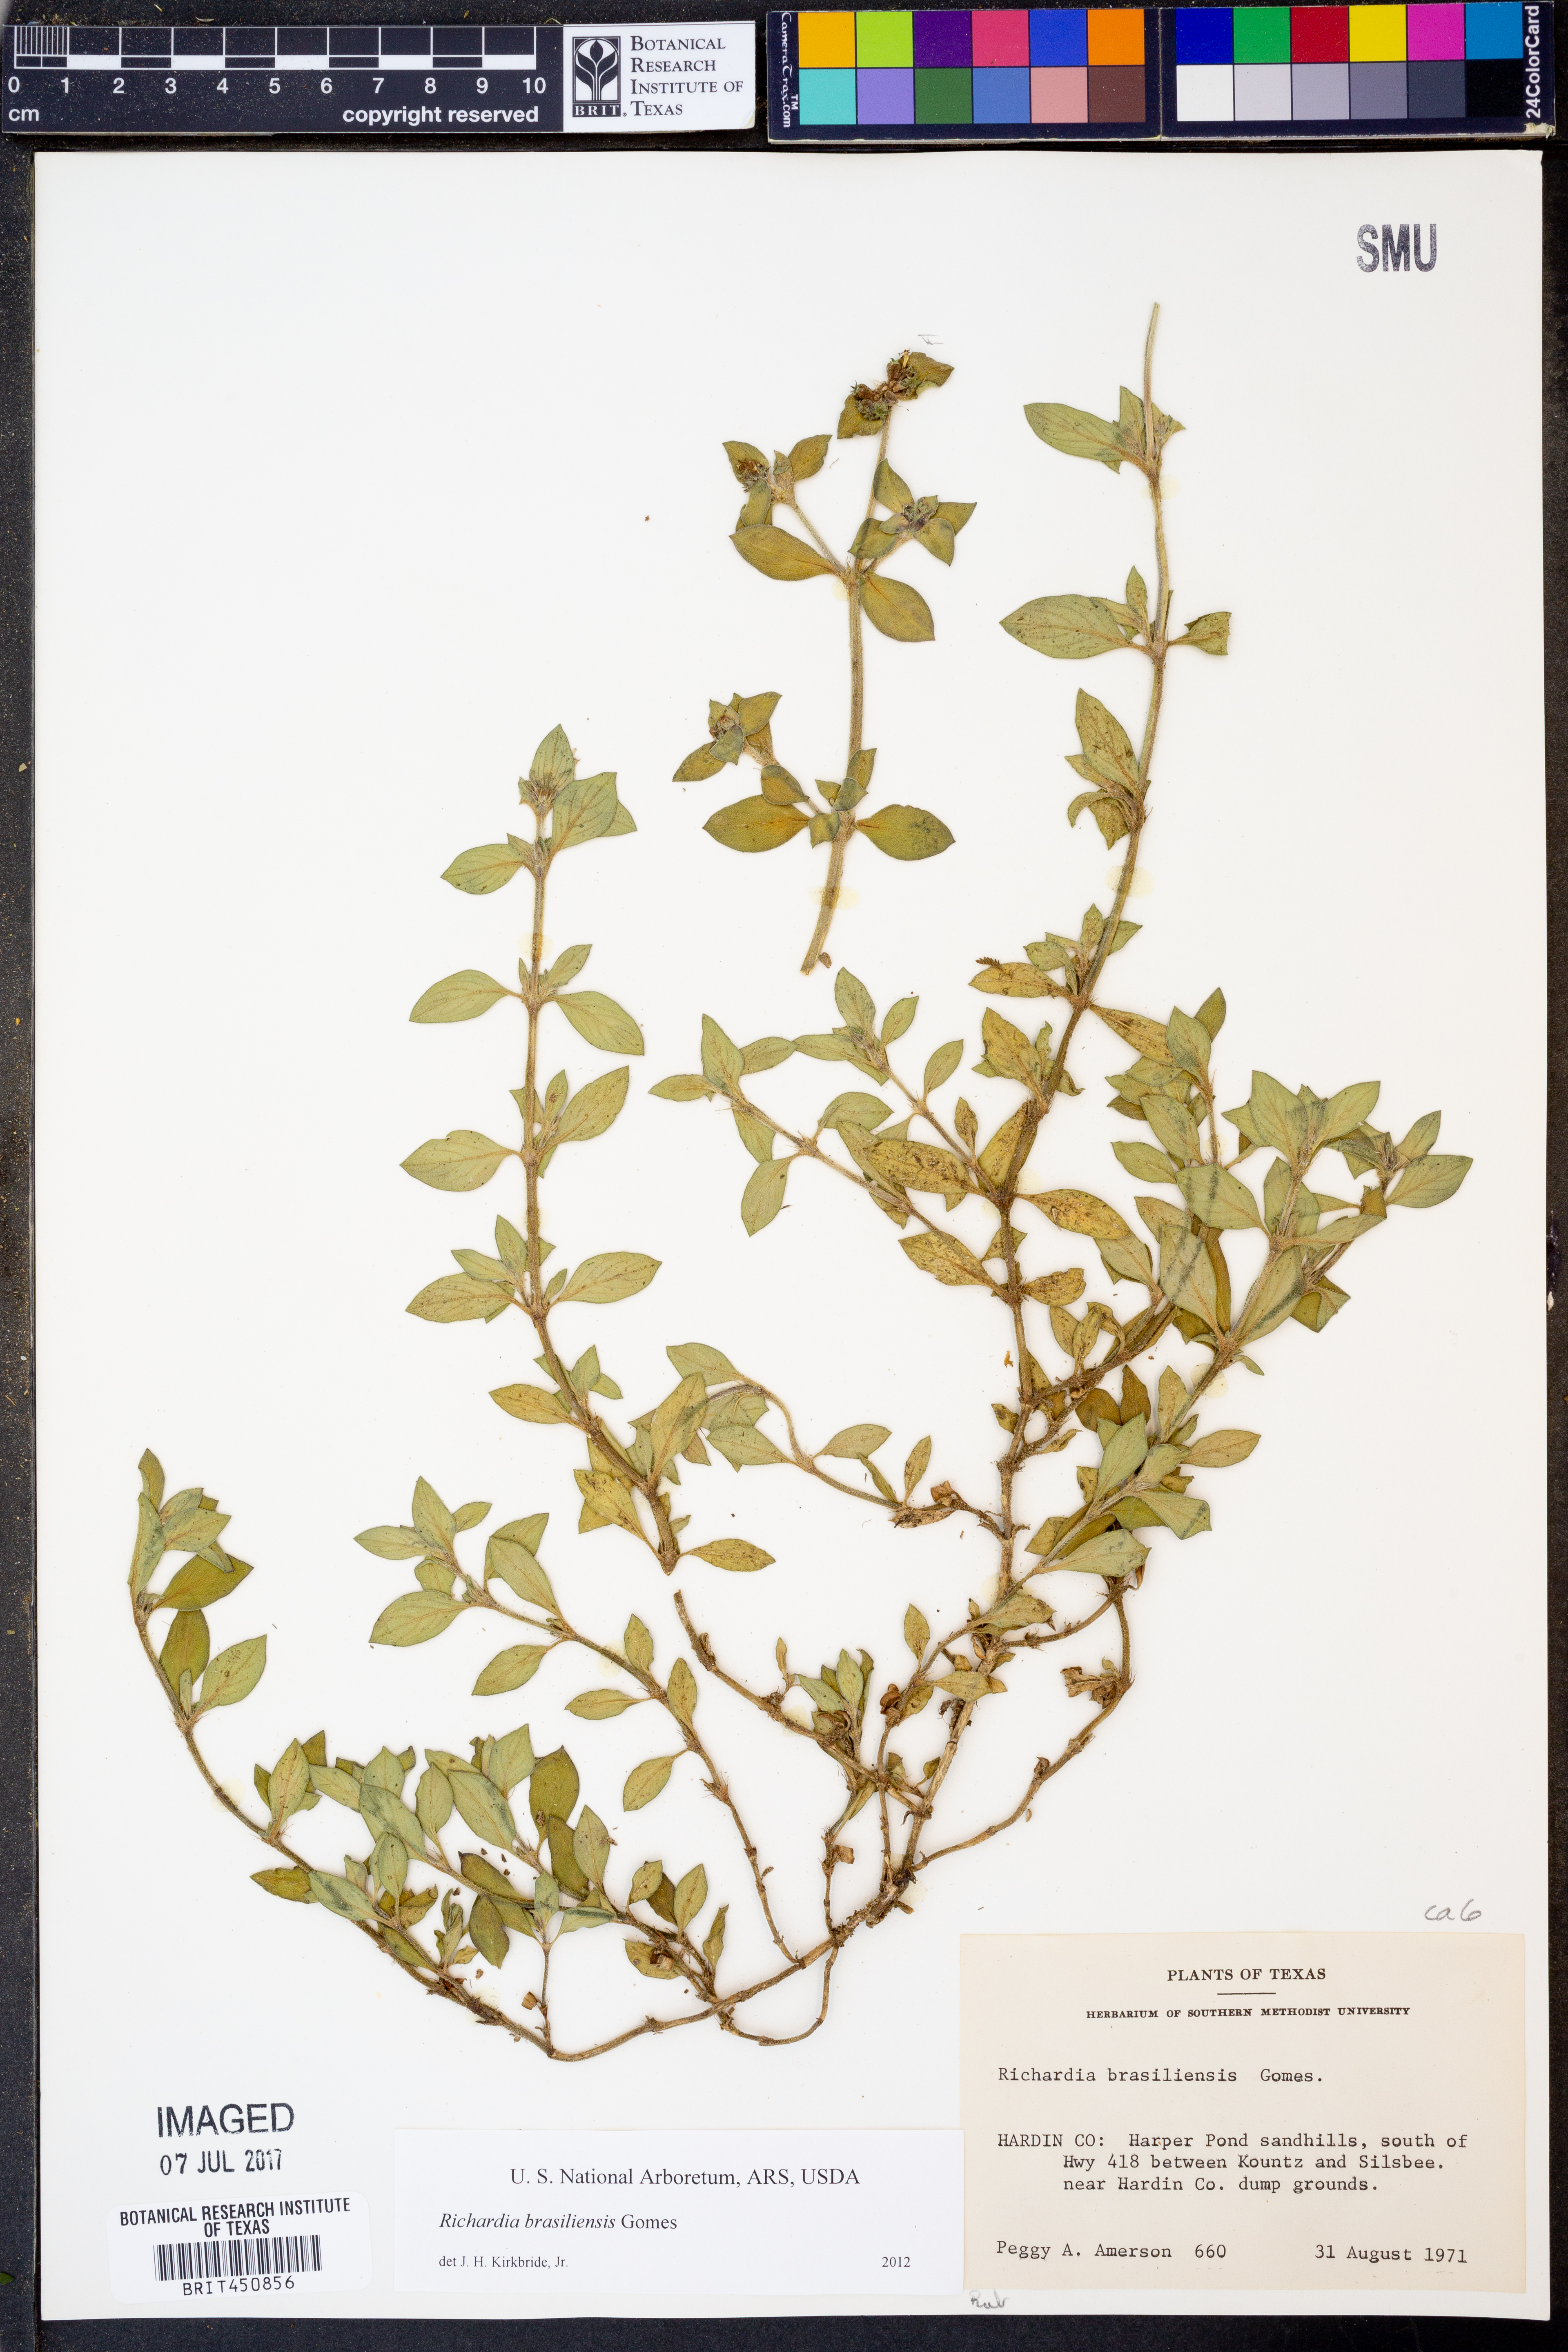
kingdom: Plantae
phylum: Tracheophyta
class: Magnoliopsida
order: Gentianales
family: Rubiaceae
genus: Richardia
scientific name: Richardia brasiliensis
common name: Tropical mexican clover
